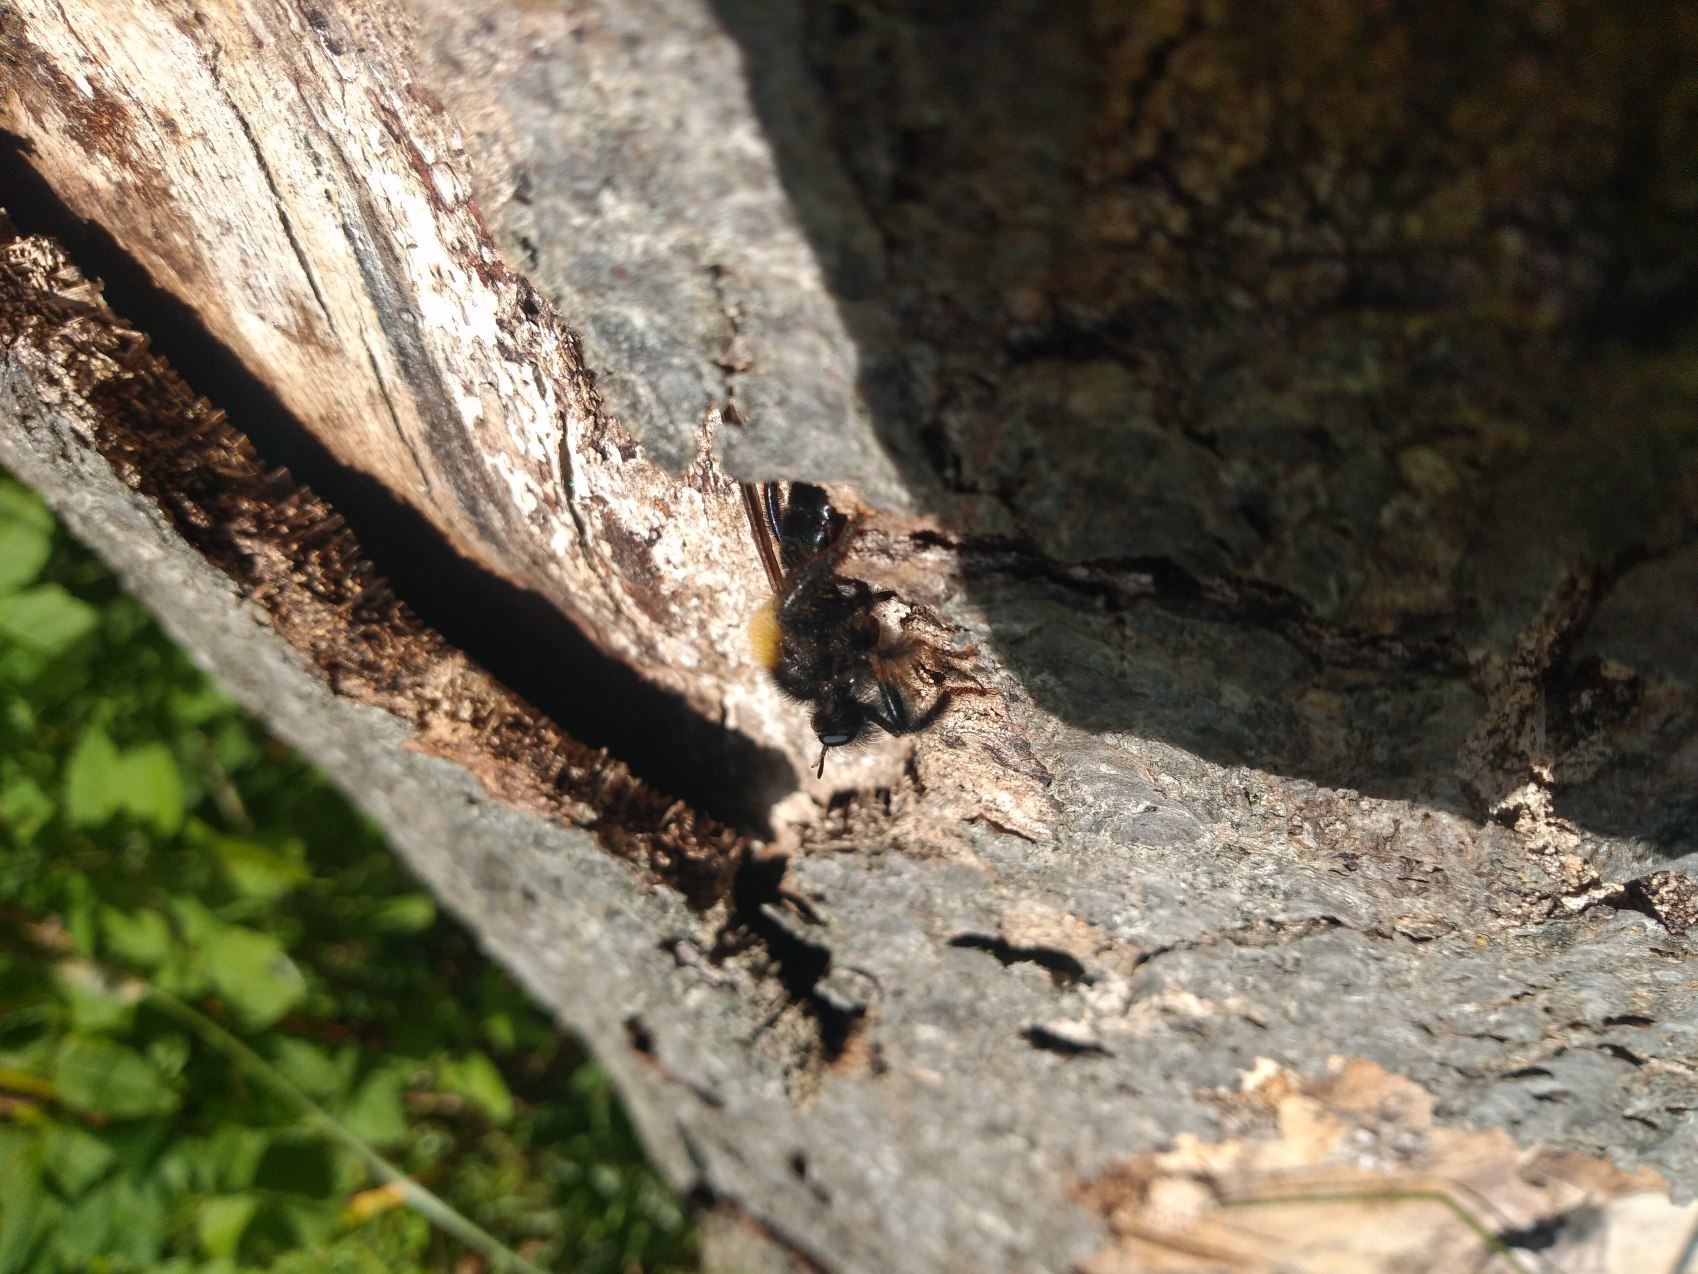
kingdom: Animalia
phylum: Arthropoda
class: Insecta
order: Diptera
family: Asilidae
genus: Laphria
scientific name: Laphria ephippium
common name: Sort vedrovflue
